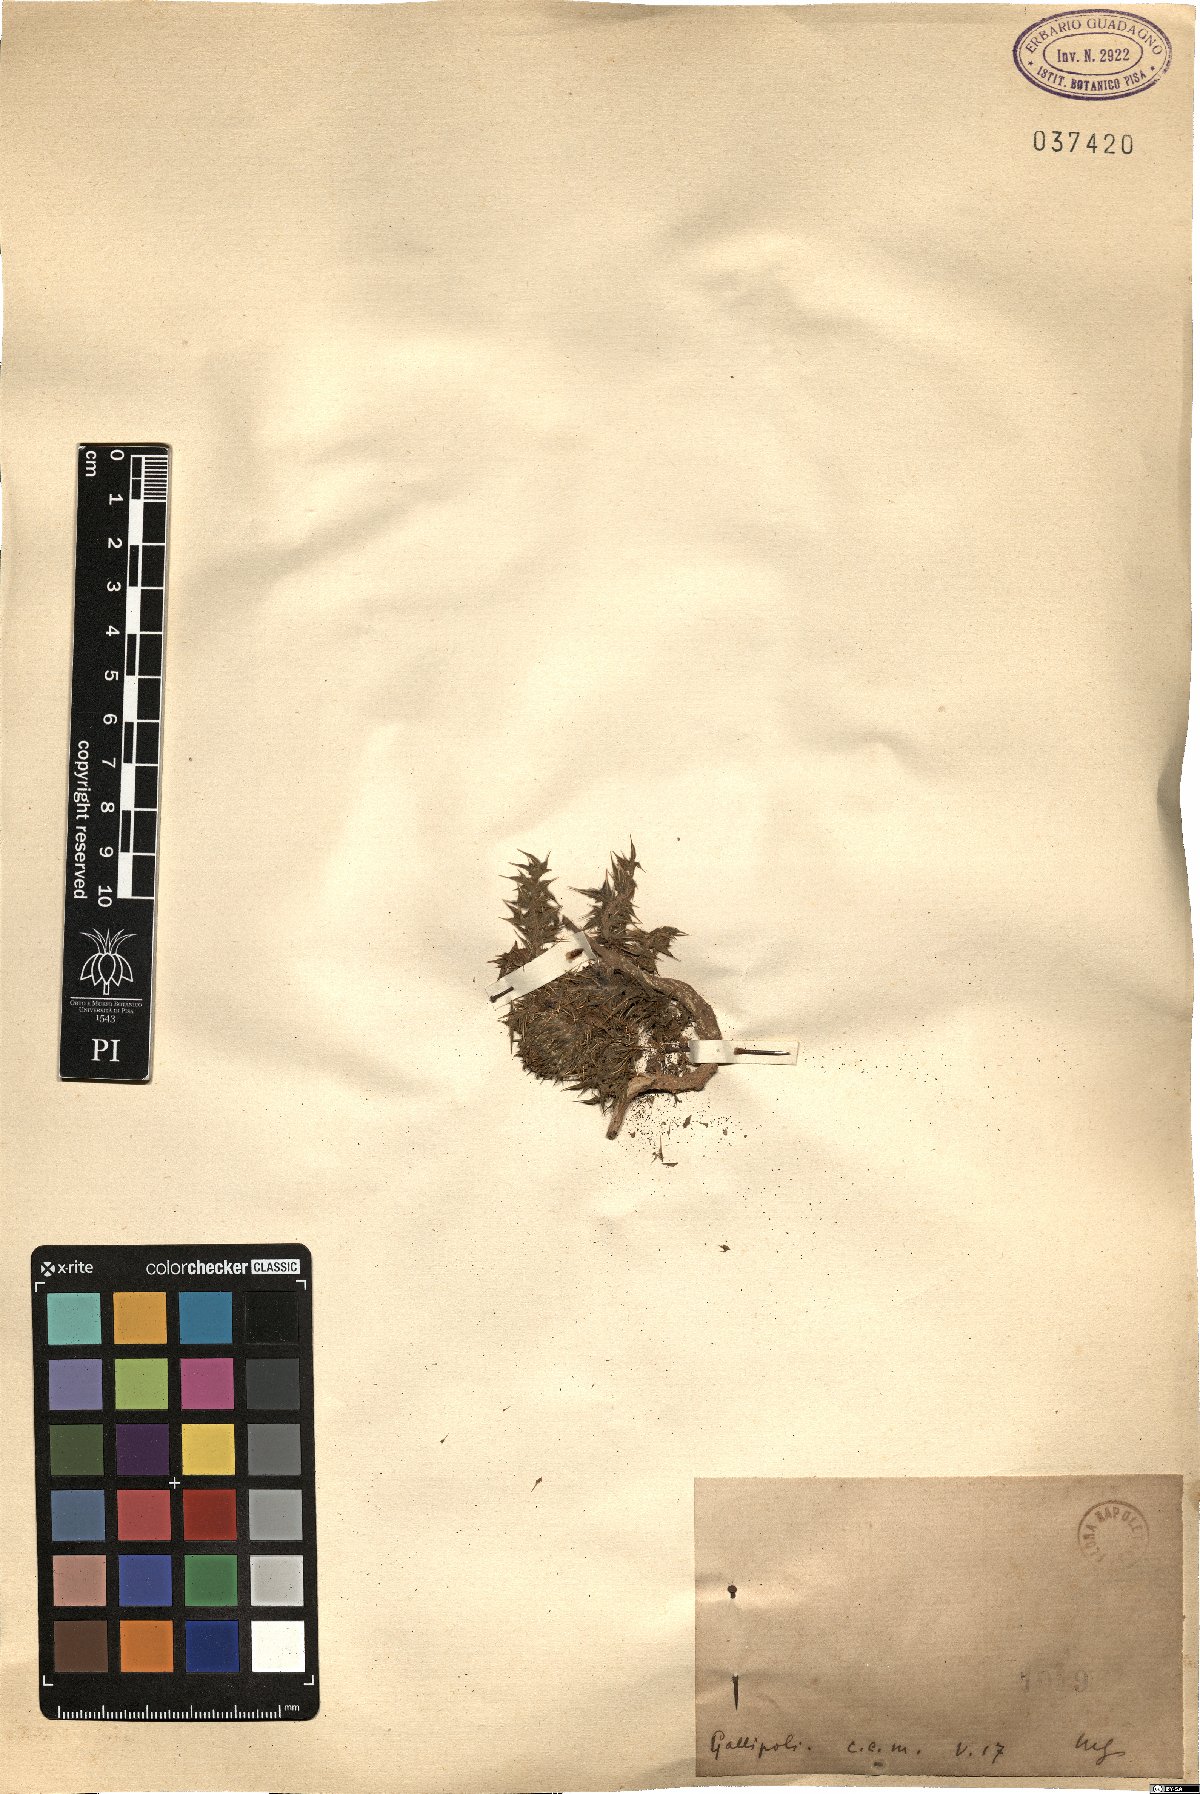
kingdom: Plantae
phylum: Tracheophyta
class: Magnoliopsida
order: Asterales
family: Asteraceae
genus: Carlina
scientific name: Carlina
